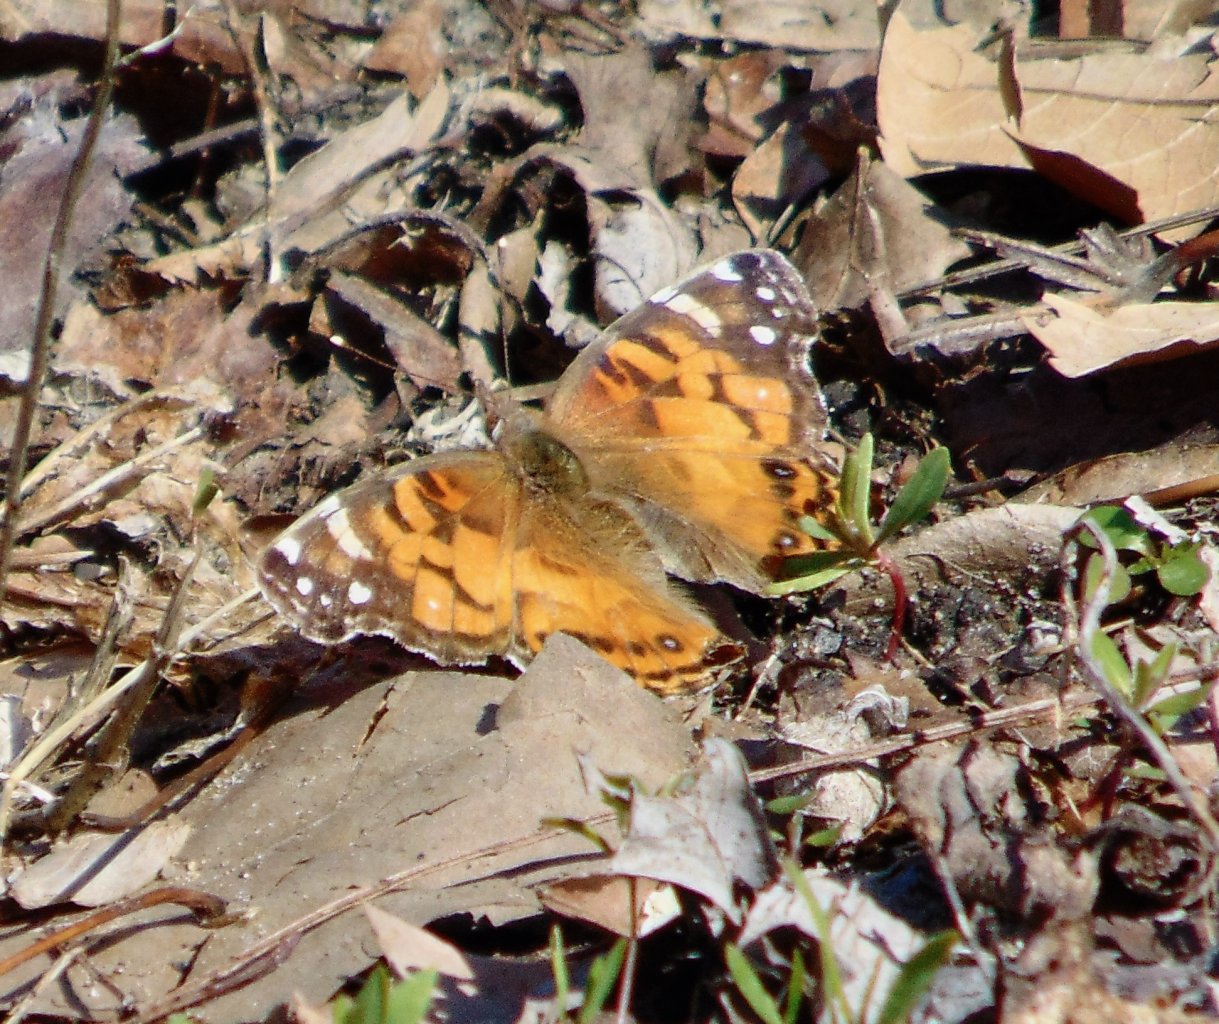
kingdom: Animalia
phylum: Arthropoda
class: Insecta
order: Lepidoptera
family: Nymphalidae
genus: Vanessa
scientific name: Vanessa virginiensis
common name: American Lady
